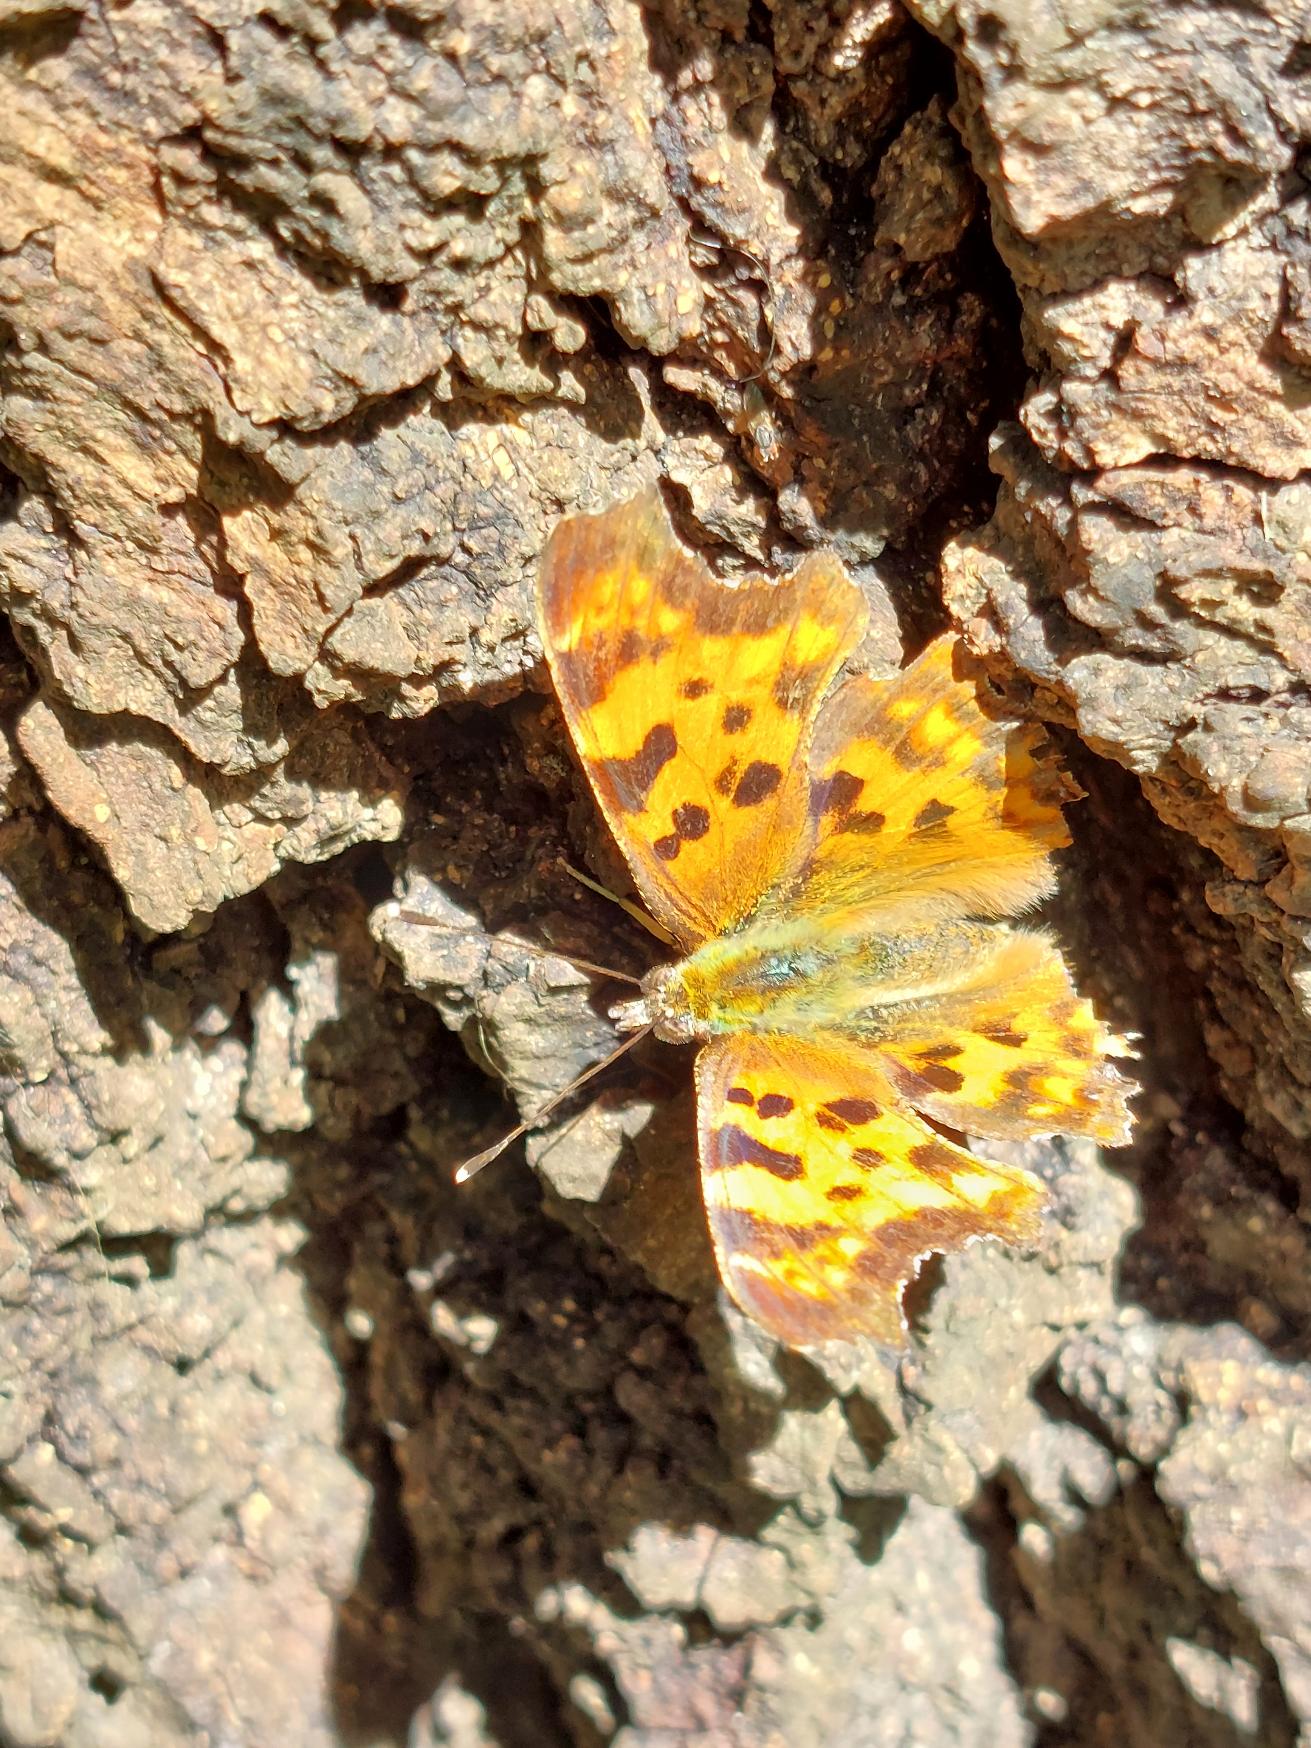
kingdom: Animalia
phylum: Arthropoda
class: Insecta
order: Lepidoptera
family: Nymphalidae
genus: Polygonia
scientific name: Polygonia c-album
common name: Det hvide C
